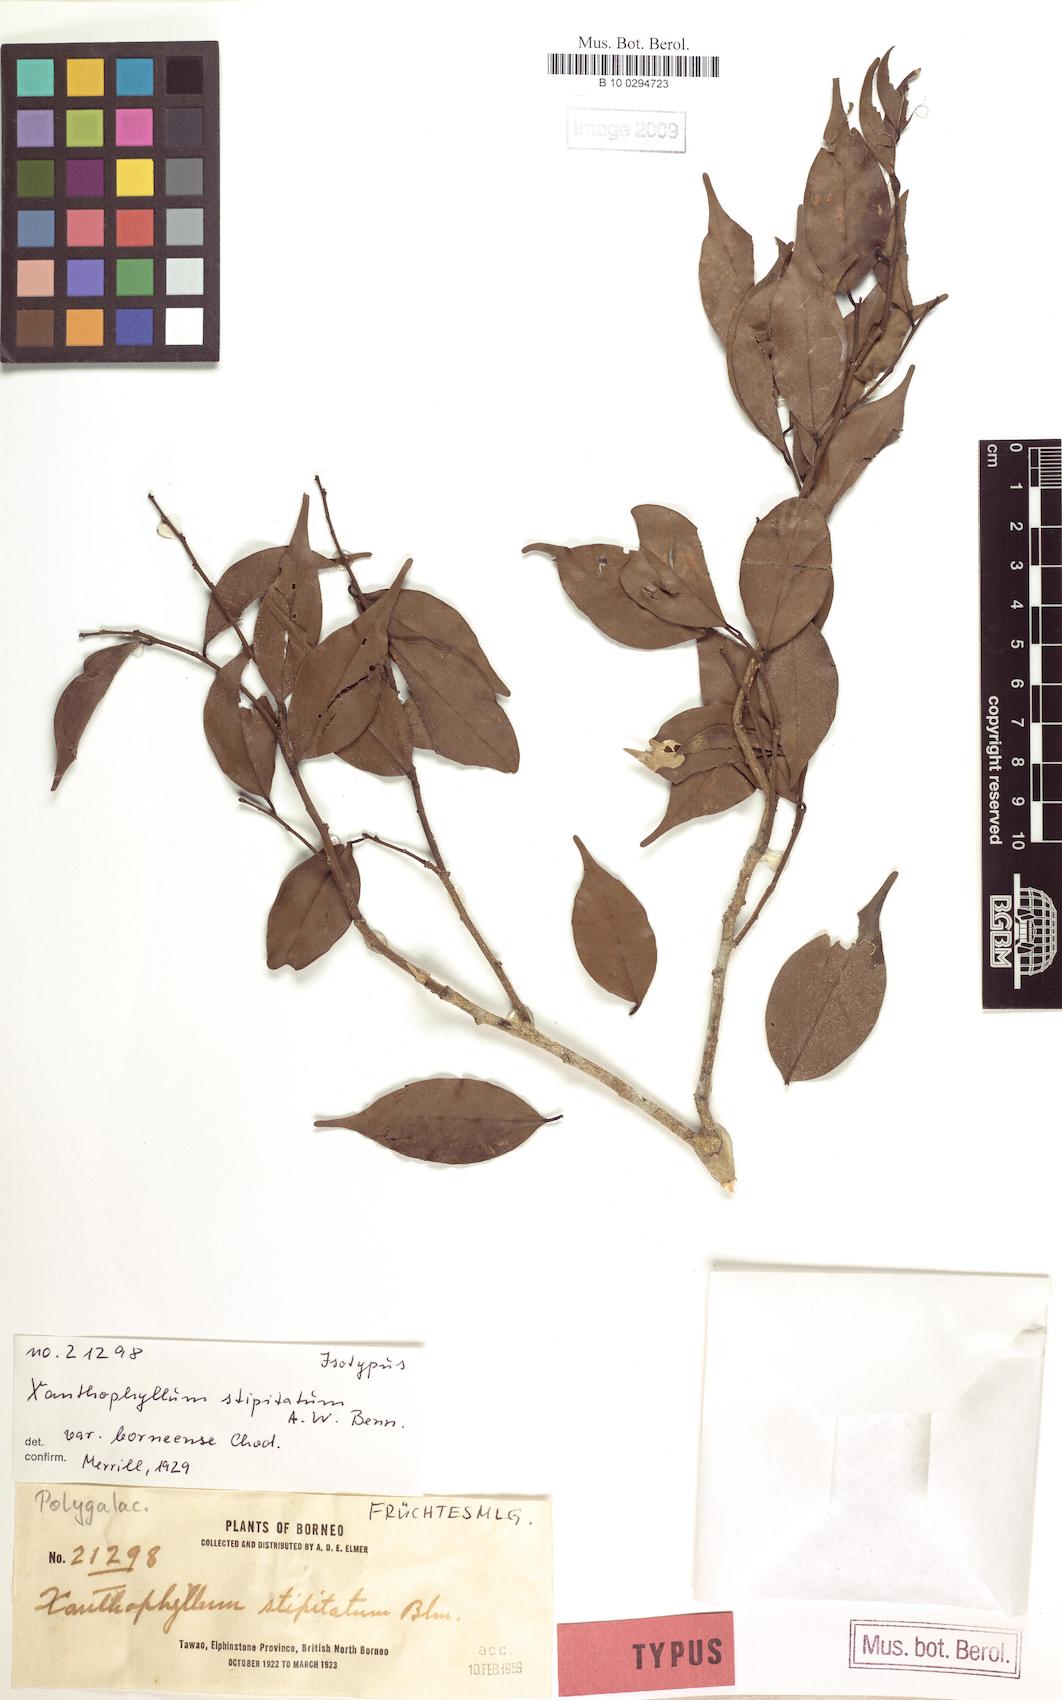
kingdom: Plantae
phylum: Tracheophyta
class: Magnoliopsida
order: Fabales
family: Polygalaceae
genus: Xanthophyllum
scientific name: Xanthophyllum stipitatum
